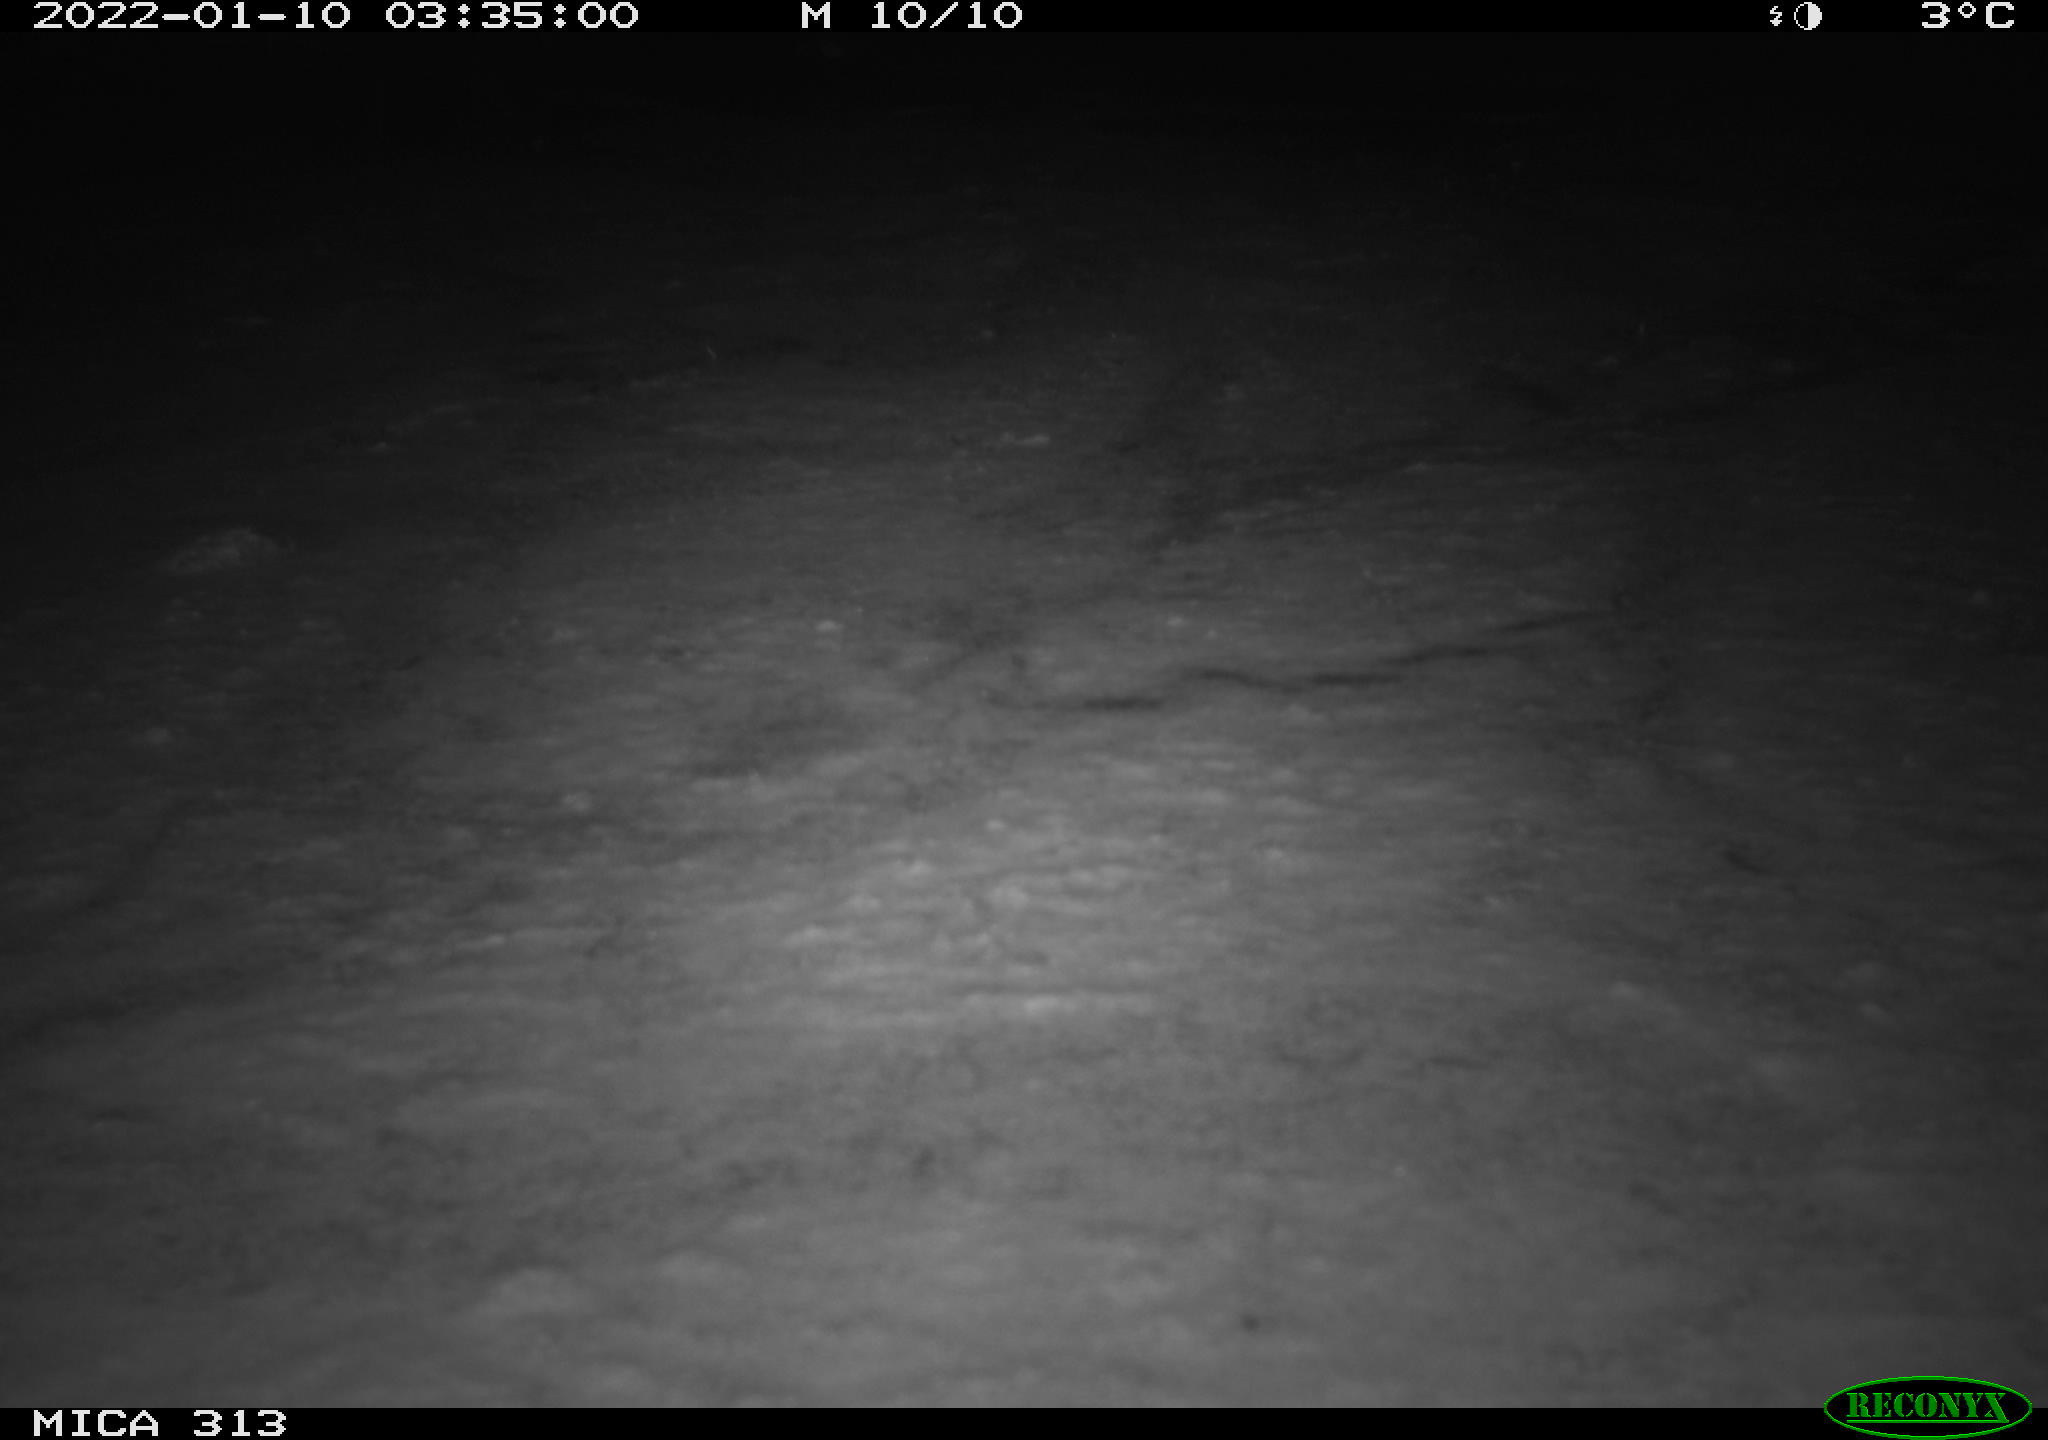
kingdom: Animalia
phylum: Chordata
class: Mammalia
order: Rodentia
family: Muridae
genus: Rattus
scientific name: Rattus norvegicus
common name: Brown rat
